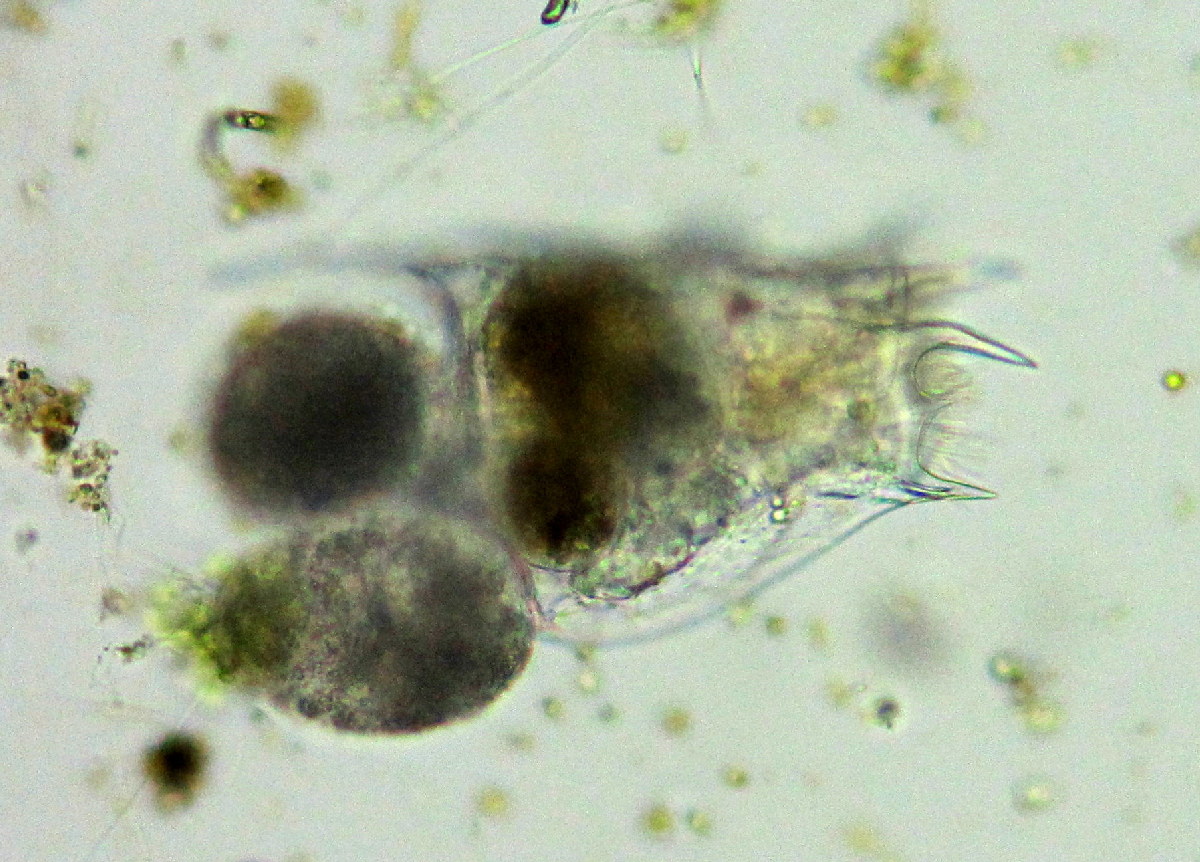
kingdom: Animalia
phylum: Rotifera
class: Eurotatoria
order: Ploima
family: Brachionidae
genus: Brachionus
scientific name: Brachionus quadridentatus
